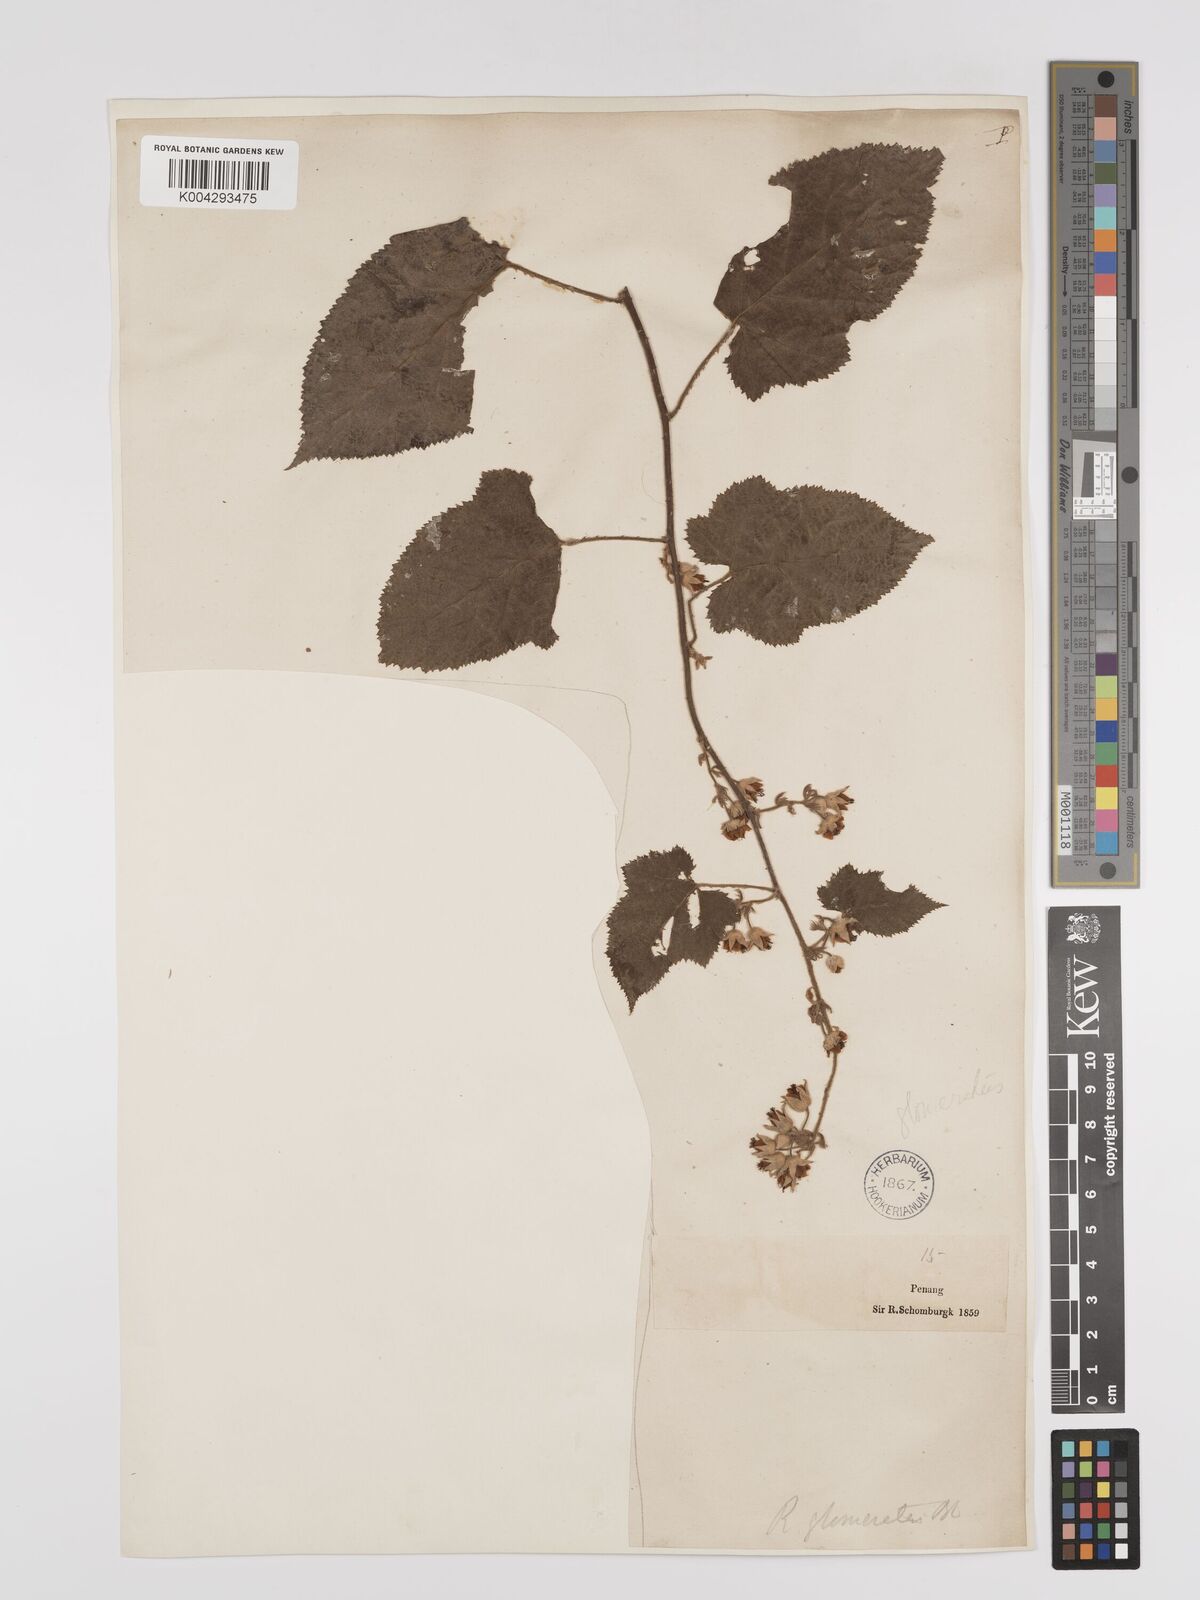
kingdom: Plantae
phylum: Tracheophyta
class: Magnoliopsida
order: Rosales
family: Rosaceae
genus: Rubus
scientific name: Rubus
